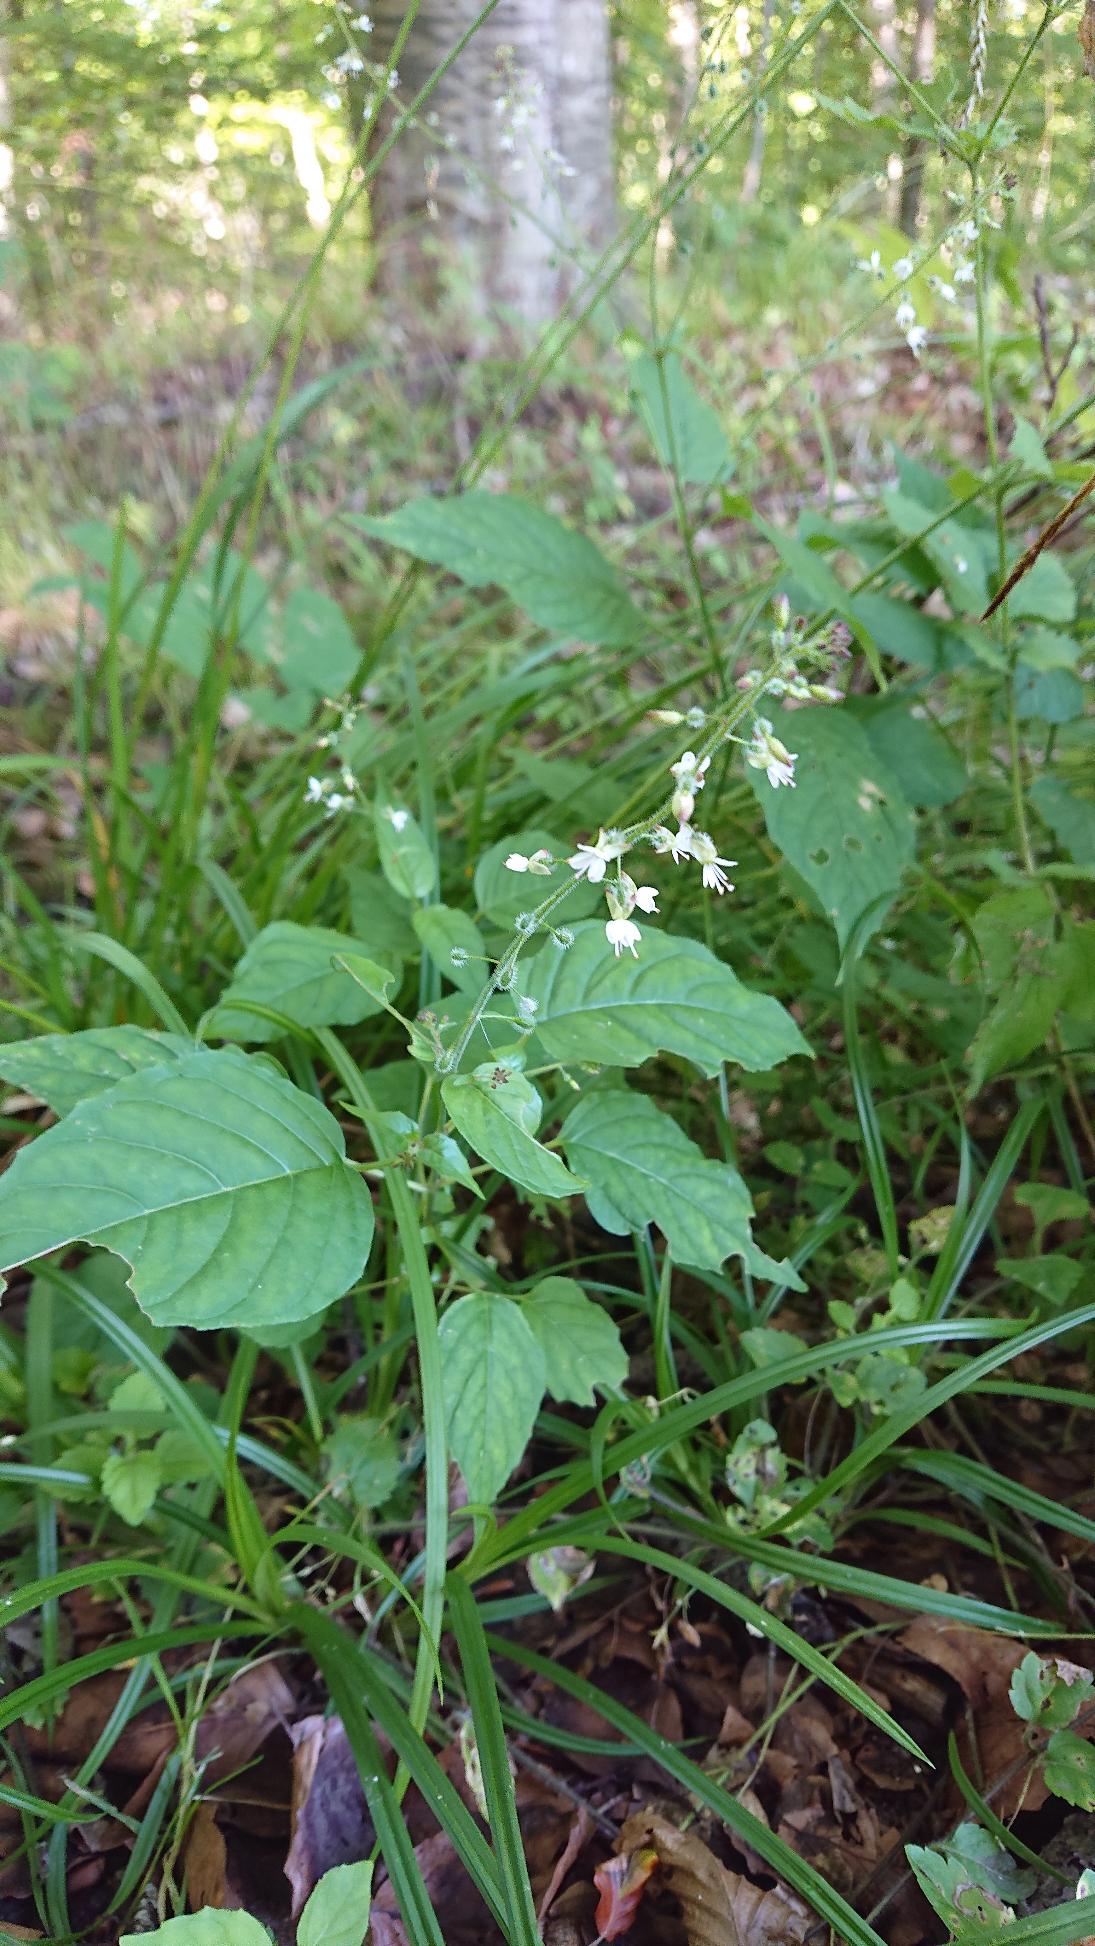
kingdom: Plantae
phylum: Tracheophyta
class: Magnoliopsida
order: Lamiales
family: Plantaginaceae
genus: Plantago
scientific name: Plantago major
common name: Glat vejbred
